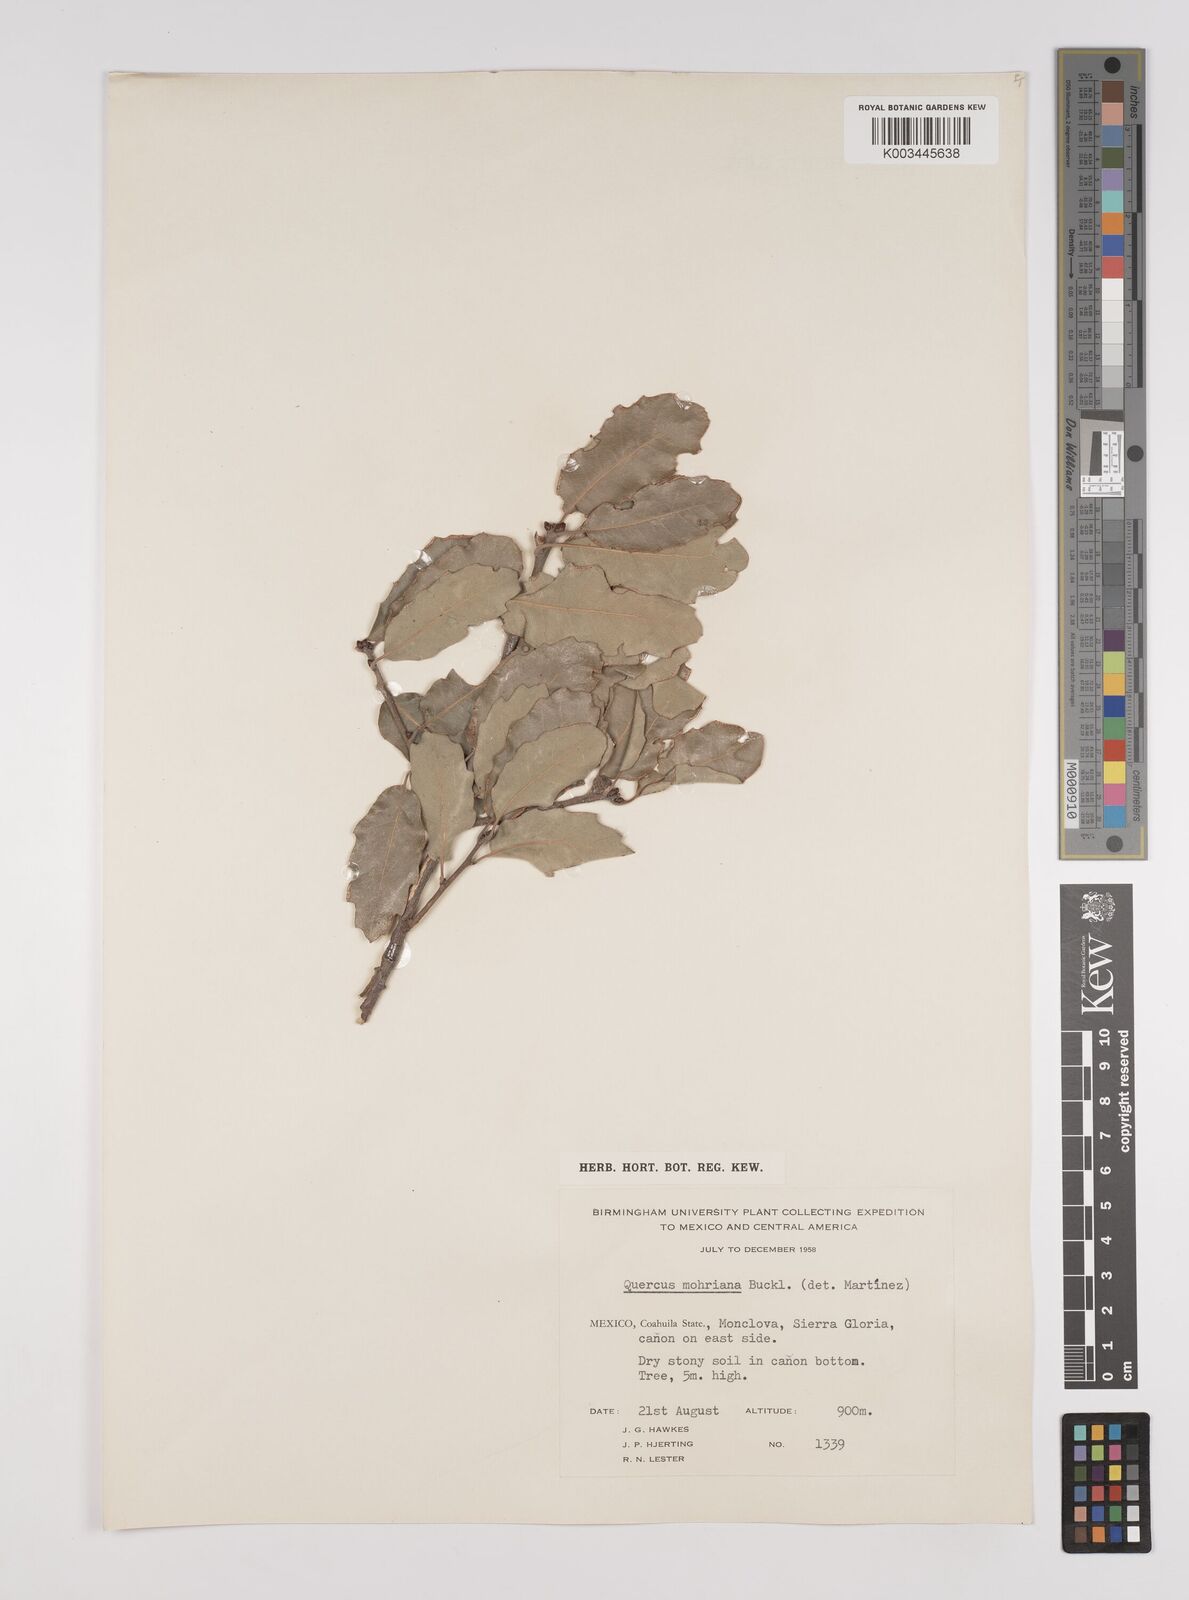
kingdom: Plantae
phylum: Tracheophyta
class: Magnoliopsida
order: Fagales
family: Fagaceae
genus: Quercus
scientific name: Quercus mohriana
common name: Mohr oak
